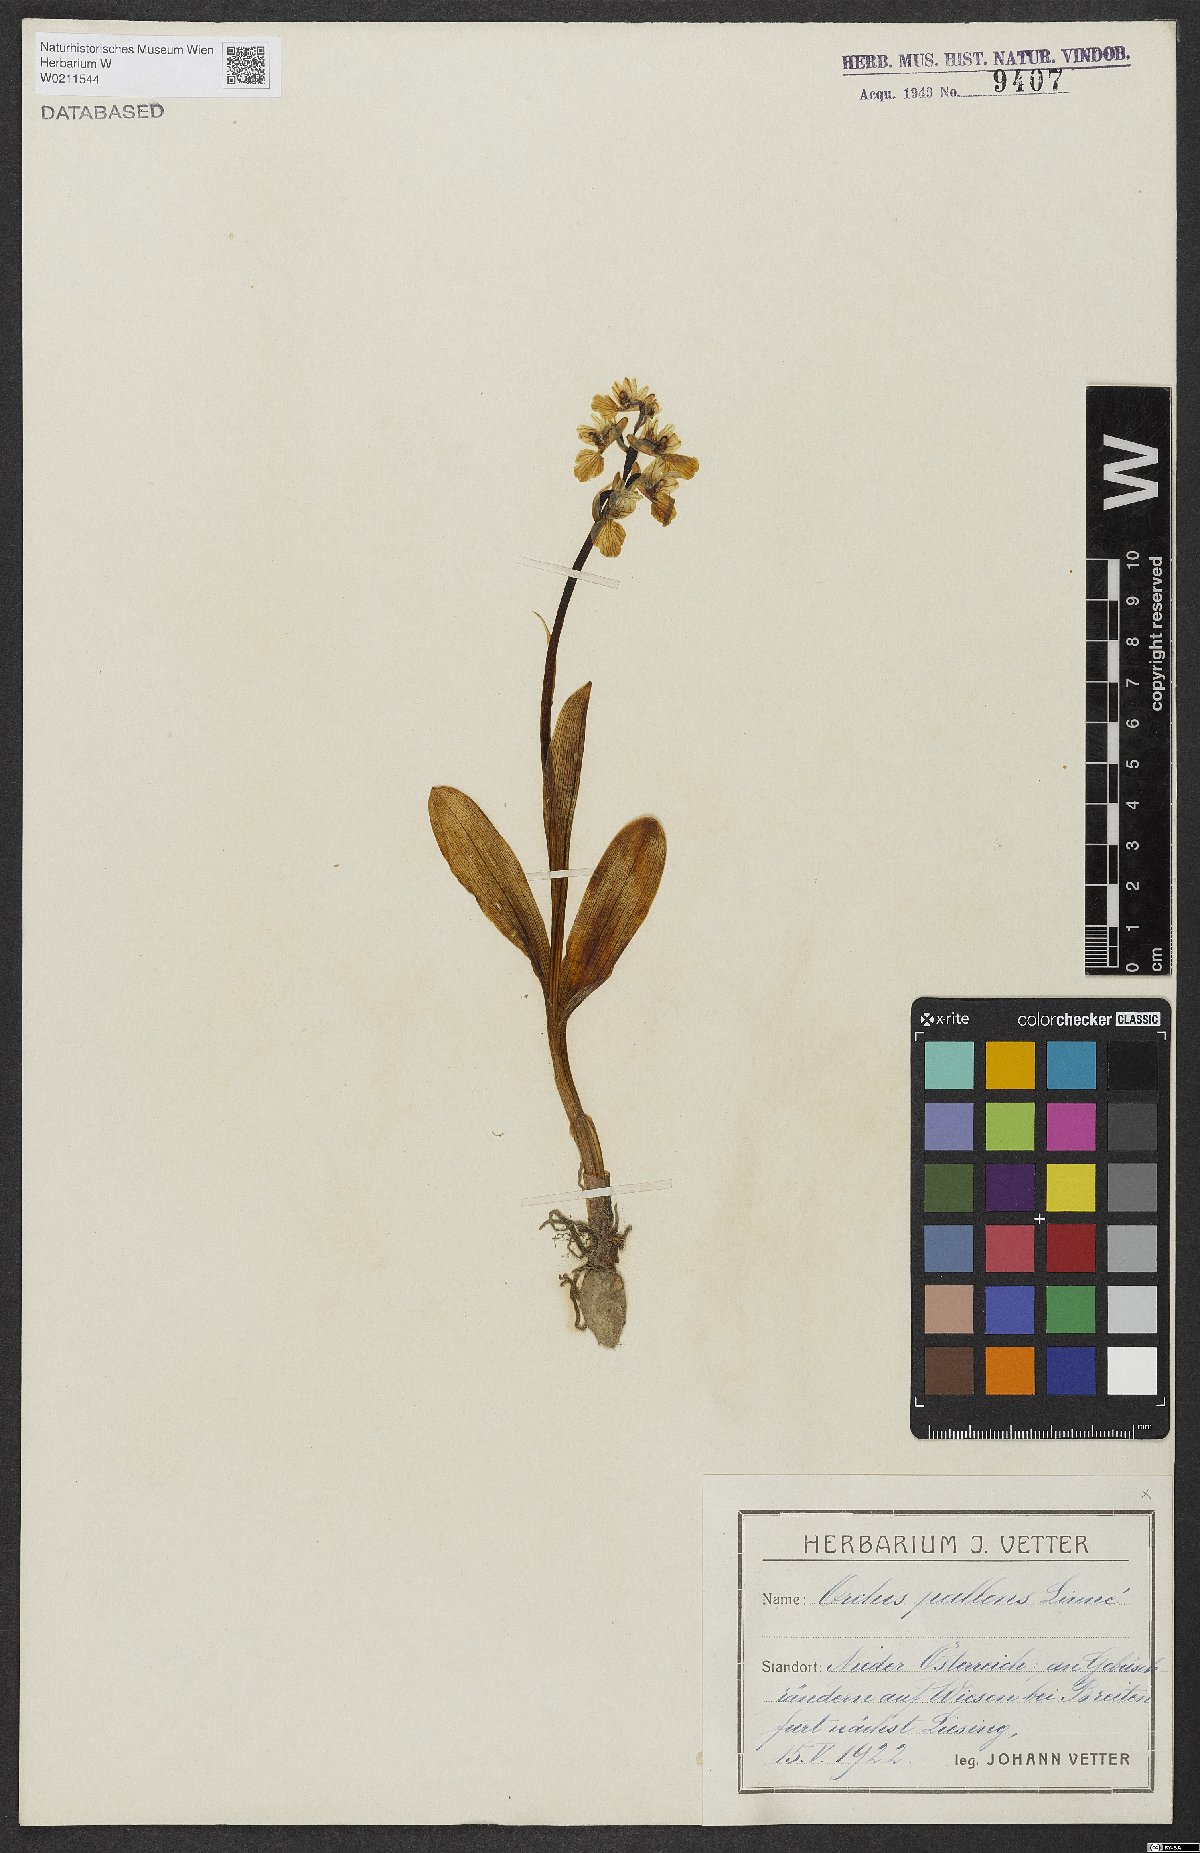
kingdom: Plantae
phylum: Tracheophyta
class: Liliopsida
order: Asparagales
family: Orchidaceae
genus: Orchis
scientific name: Orchis pallens
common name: Pale-flowered orchid
